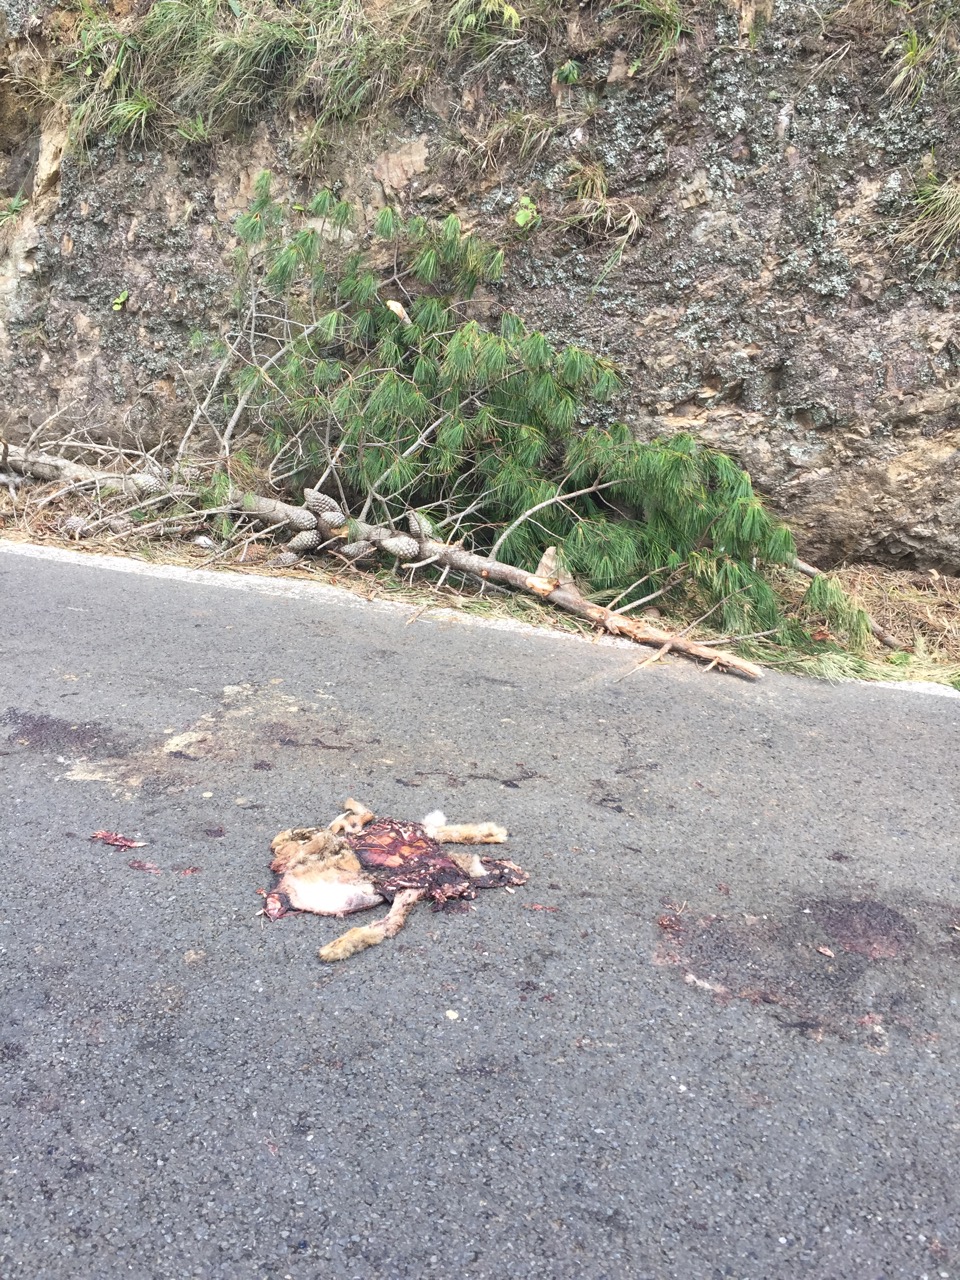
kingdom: Animalia
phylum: Chordata
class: Mammalia
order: Lagomorpha
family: Leporidae
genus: Lepus
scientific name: Lepus europaeus
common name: European hare
